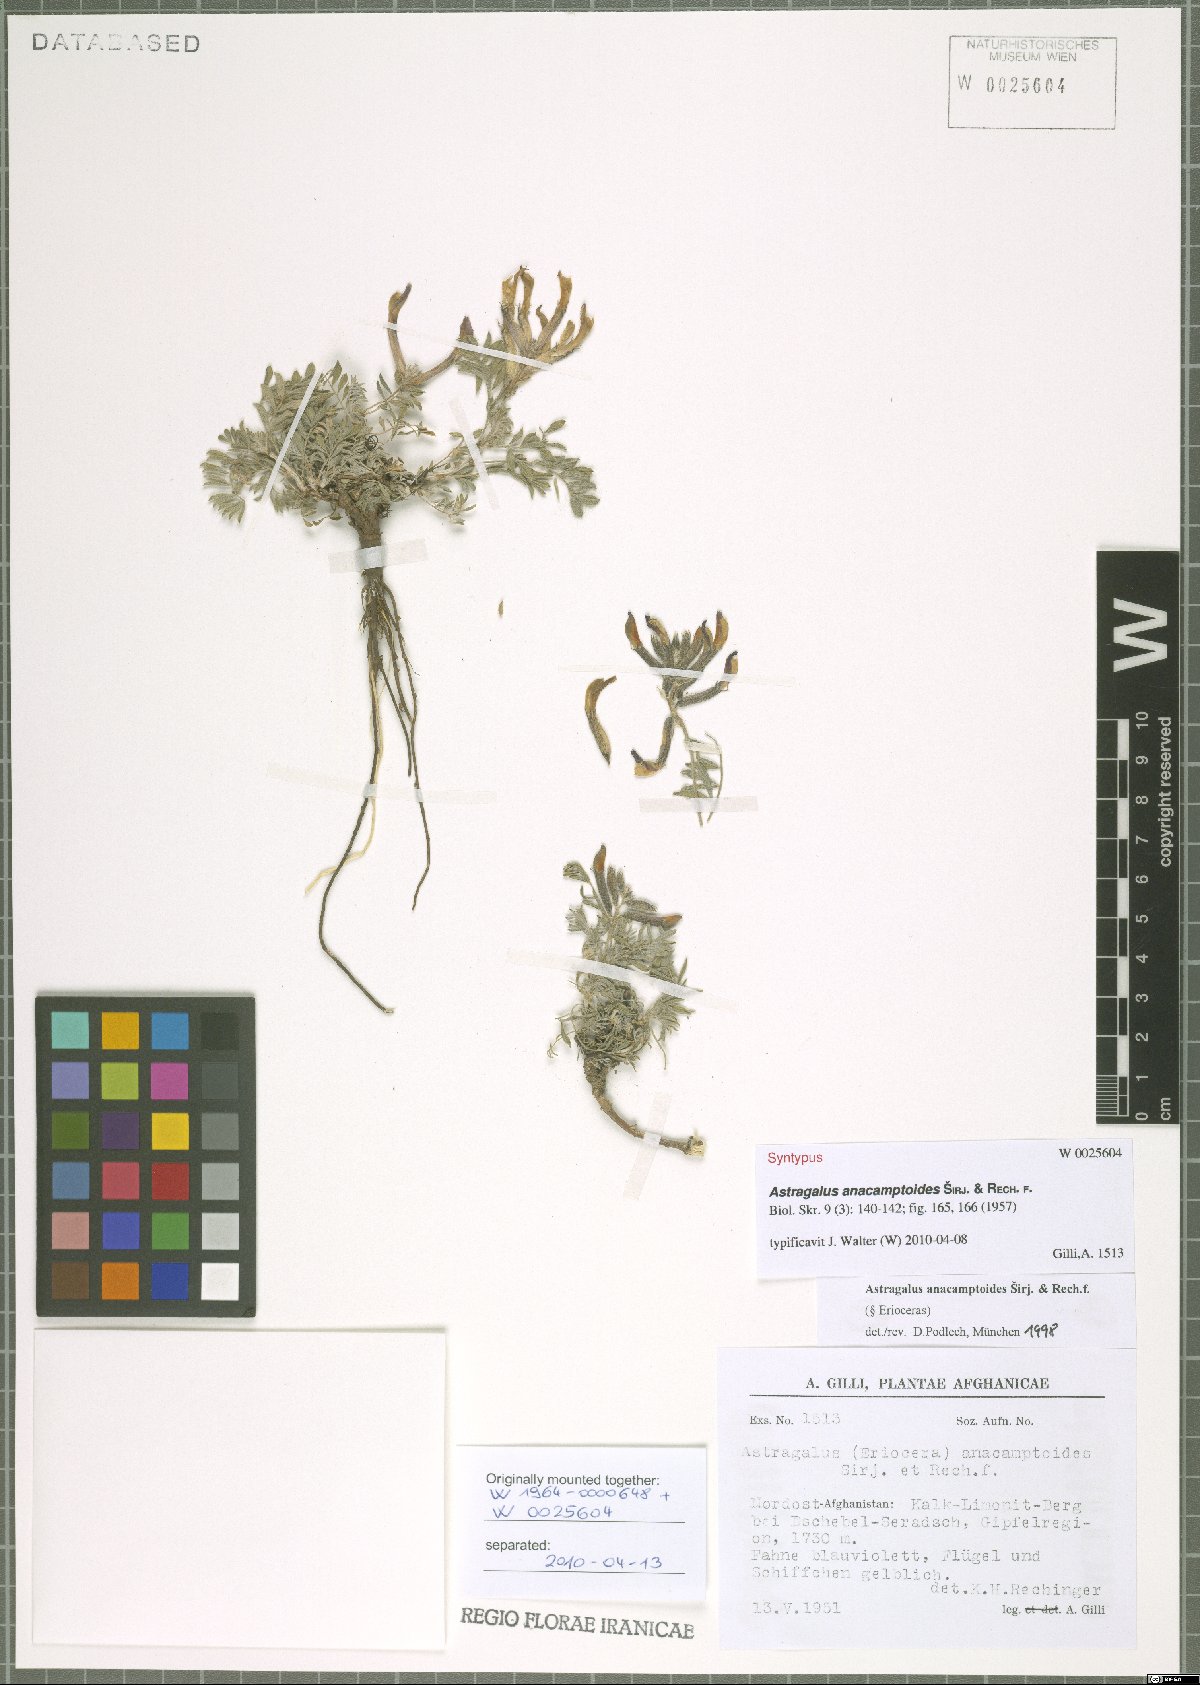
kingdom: Plantae
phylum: Tracheophyta
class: Magnoliopsida
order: Fabales
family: Fabaceae
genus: Astragalus
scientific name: Astragalus anacamptoides
